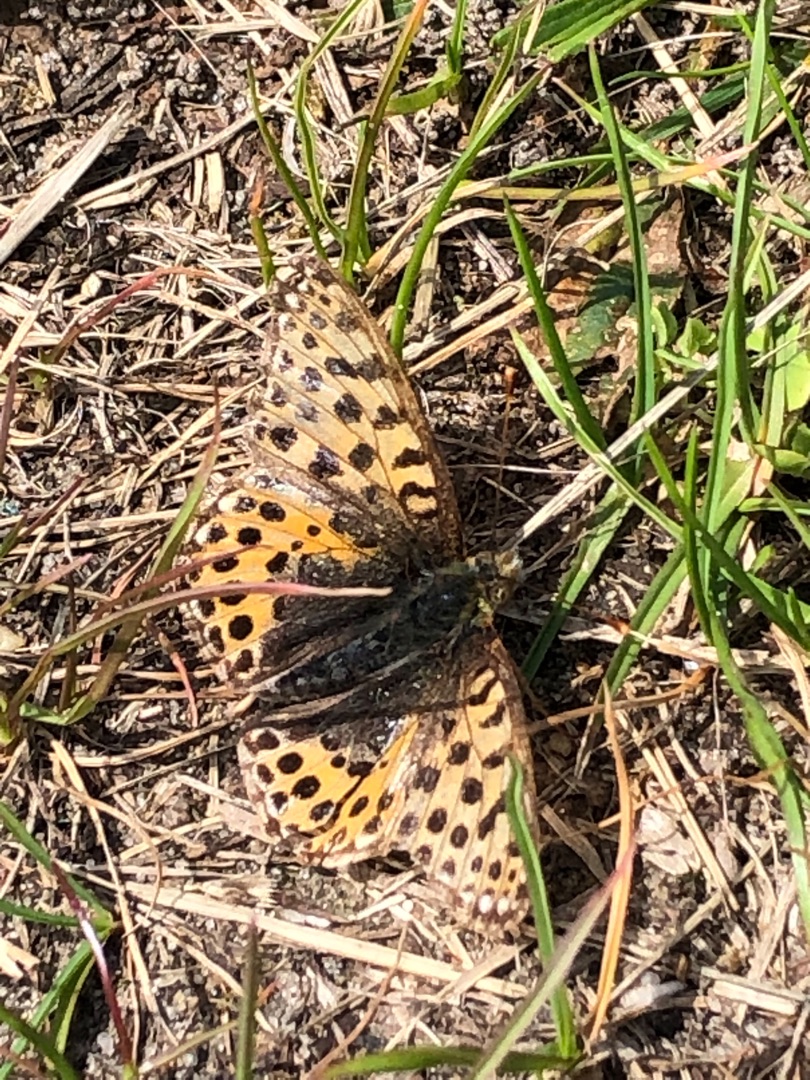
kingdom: Animalia
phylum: Arthropoda
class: Insecta
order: Lepidoptera
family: Nymphalidae
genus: Issoria
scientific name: Issoria lathonia
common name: Storplettet perlemorsommerfugl
